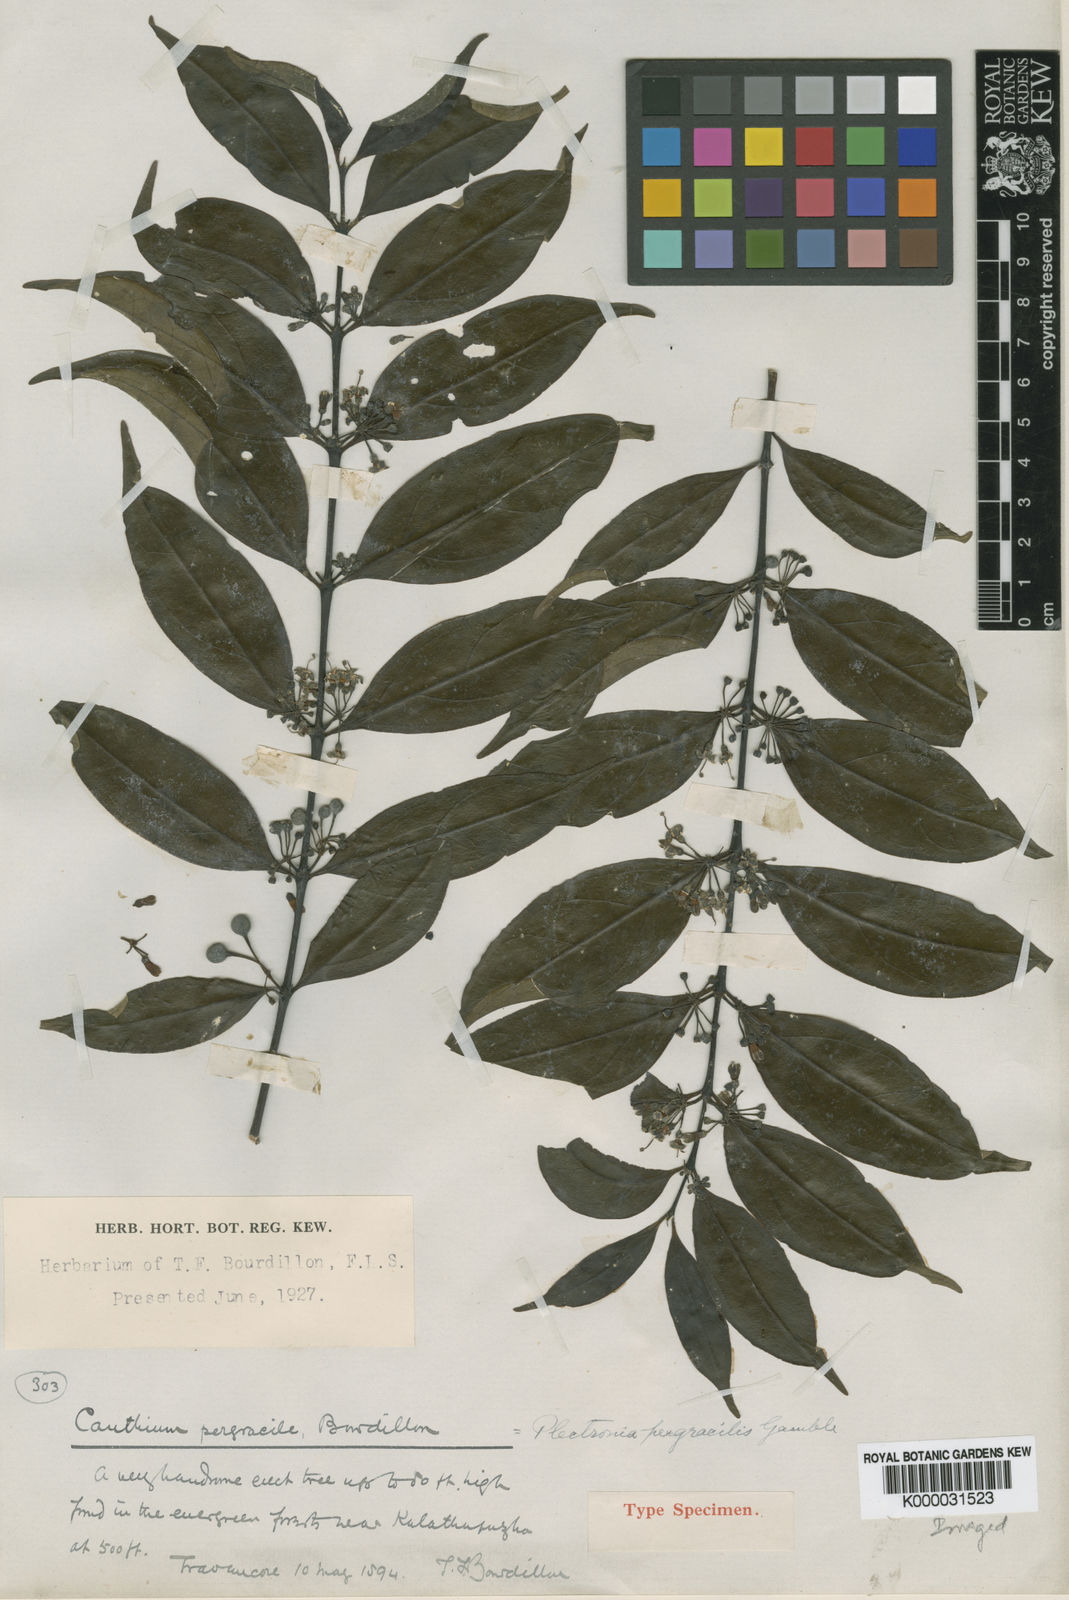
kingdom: Plantae
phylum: Tracheophyta
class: Magnoliopsida
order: Gentianales
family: Rubiaceae
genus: Psydrax
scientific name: Psydrax pergracilis
